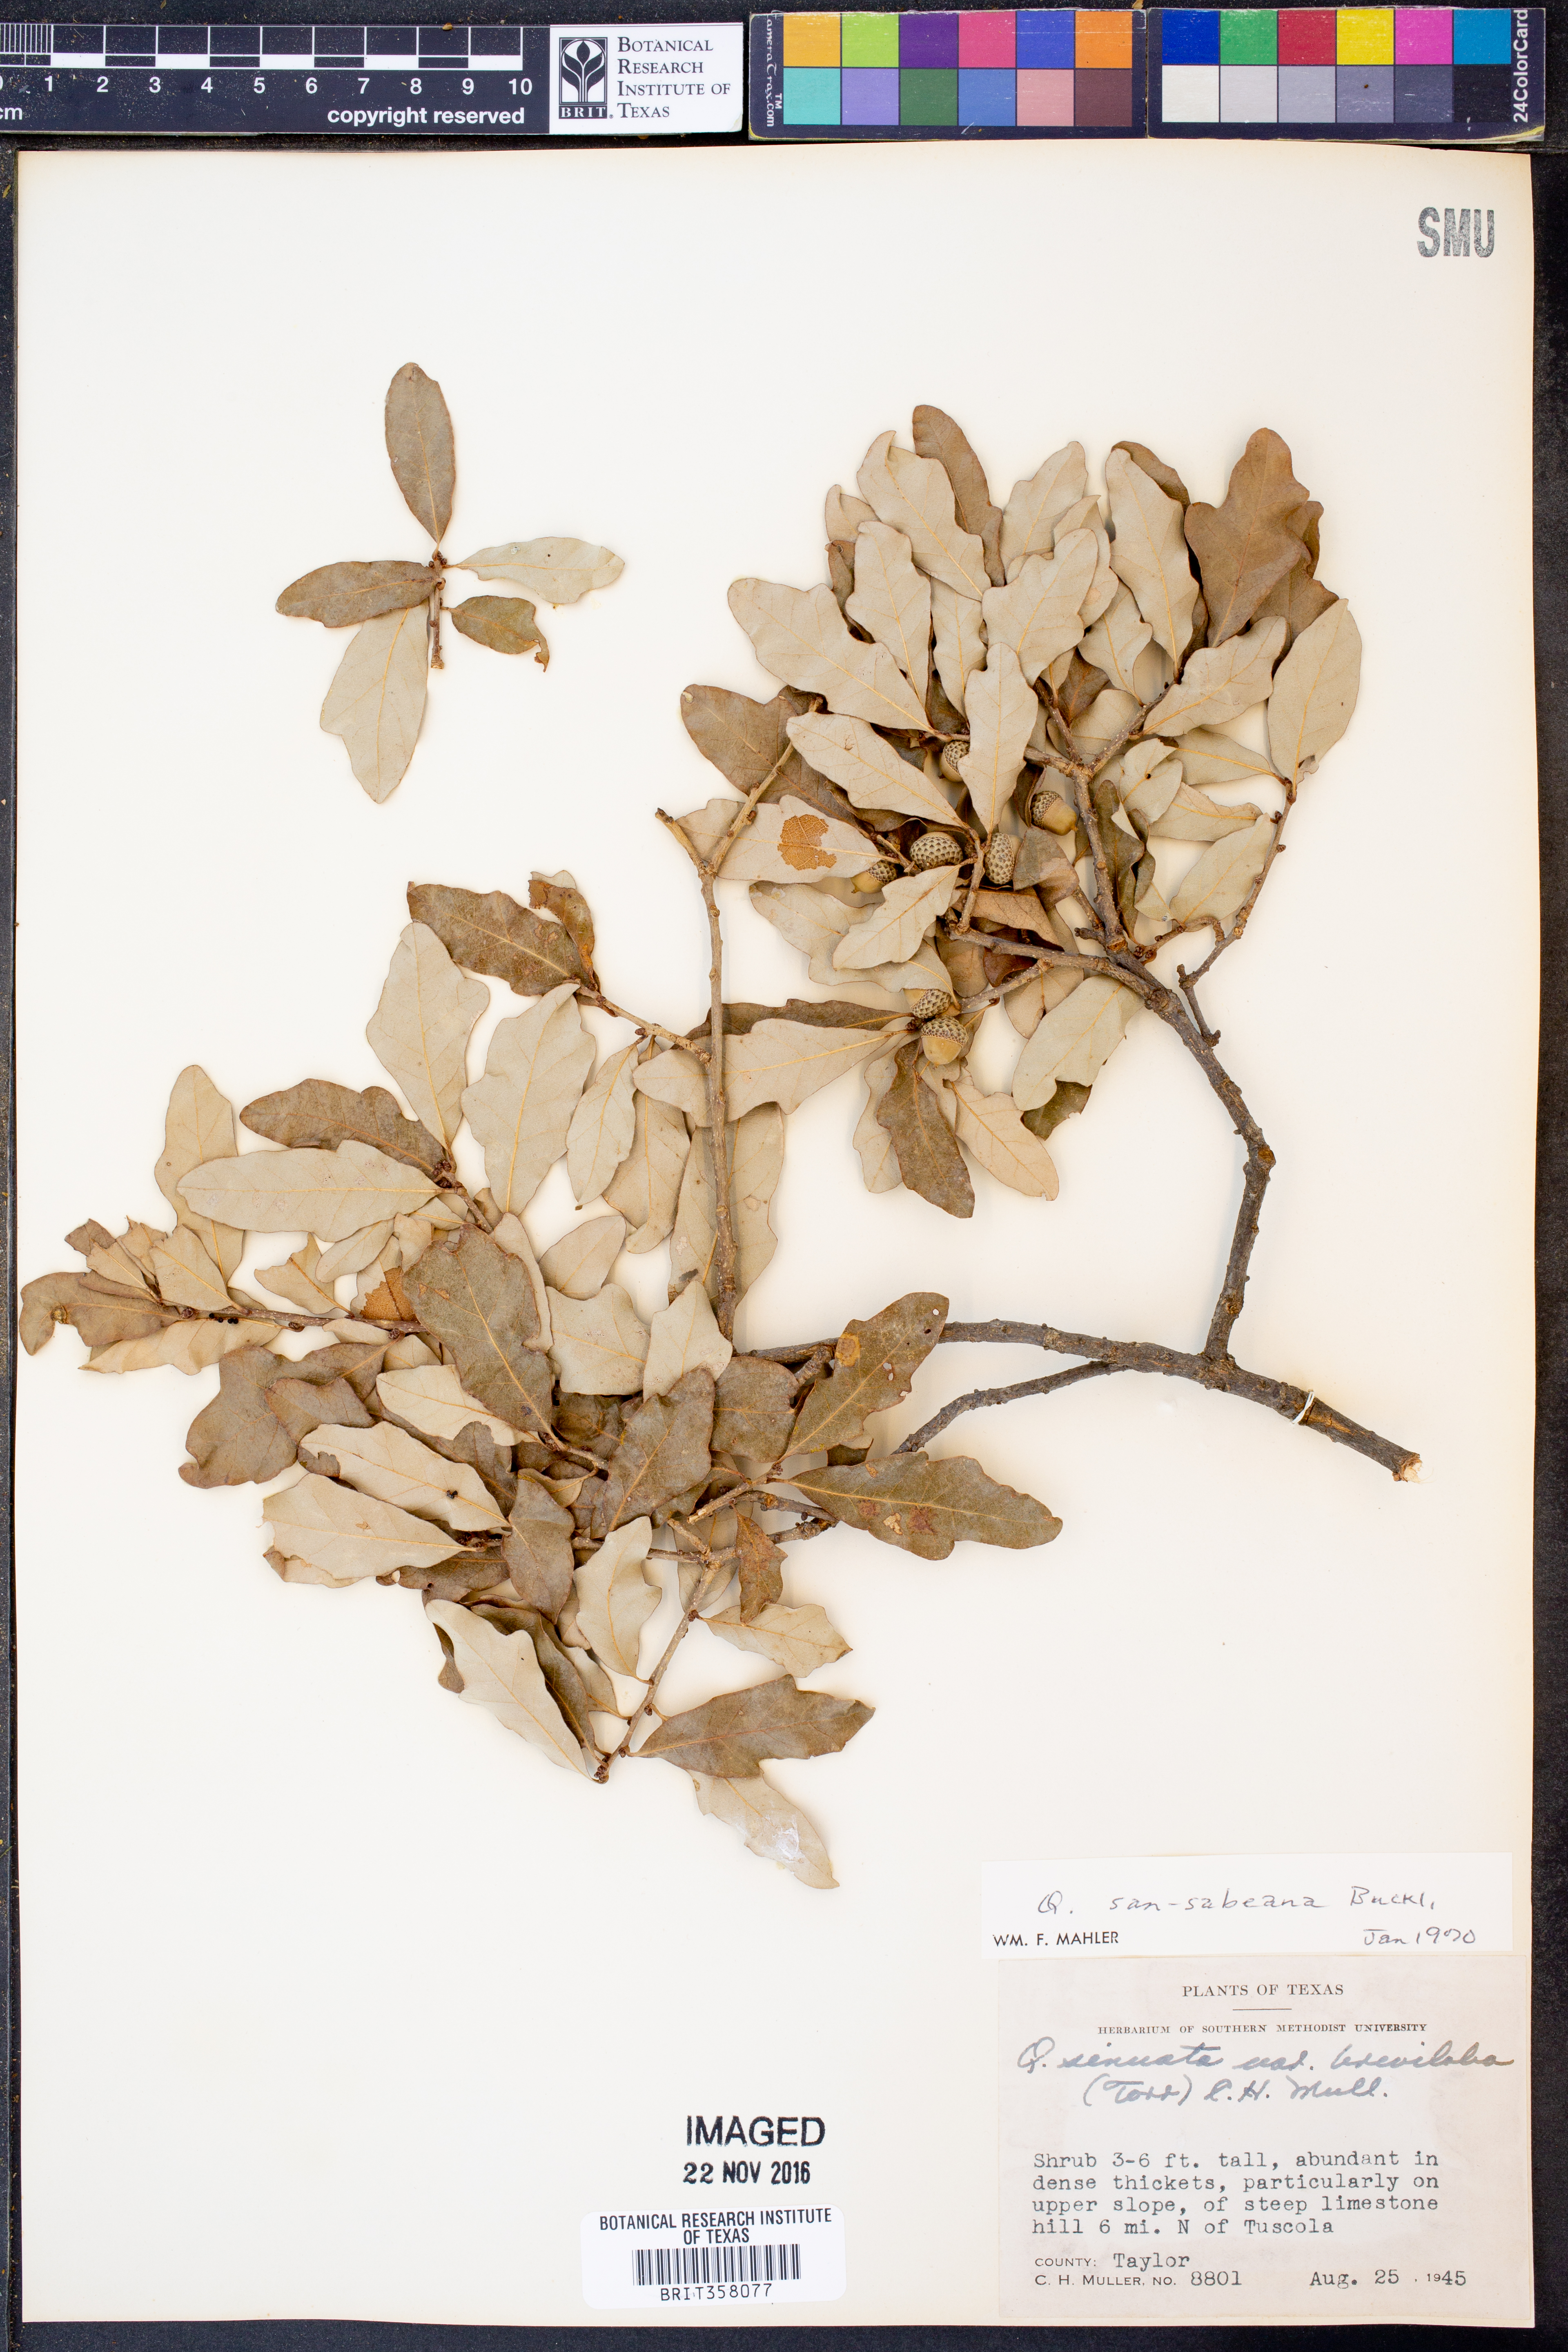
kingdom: Plantae
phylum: Tracheophyta
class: Magnoliopsida
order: Fagales
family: Fagaceae
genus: Quercus
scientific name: Quercus sinuata
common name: Durand oak
